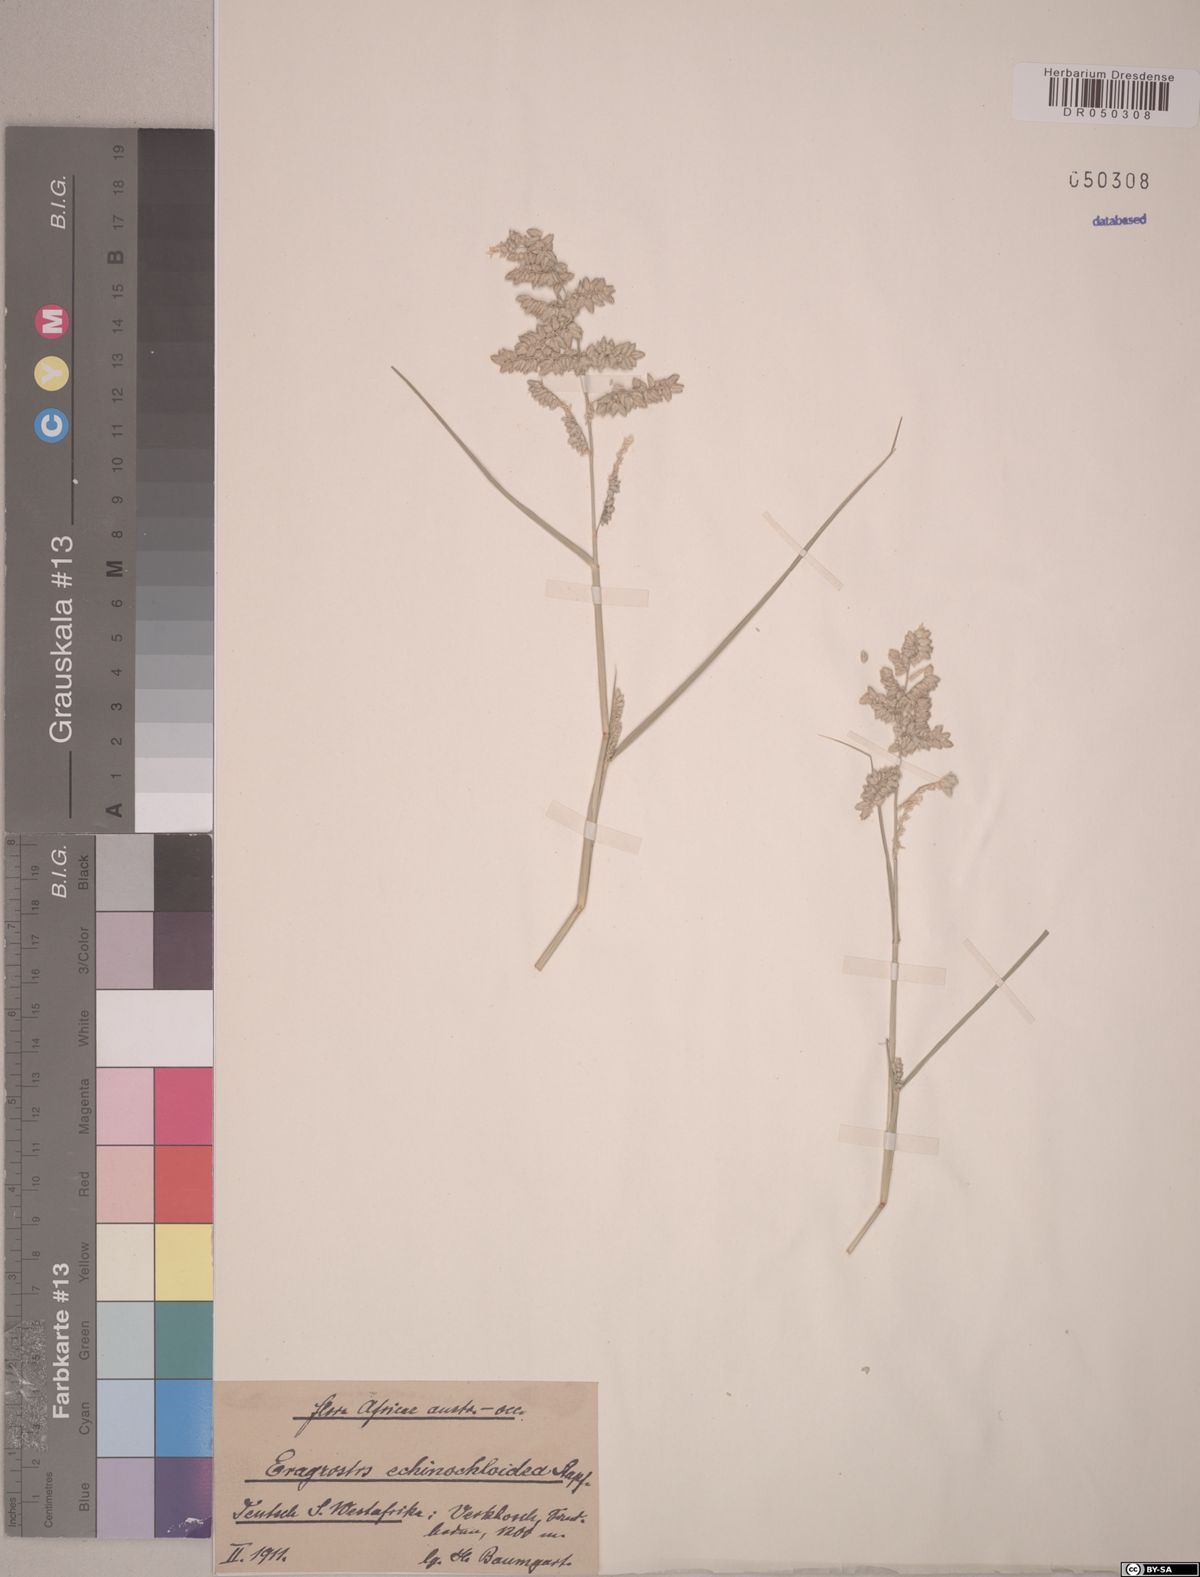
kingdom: Plantae
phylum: Tracheophyta
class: Liliopsida
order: Poales
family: Poaceae
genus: Eragrostis
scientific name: Eragrostis echinochloidea
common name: African lovegrass
